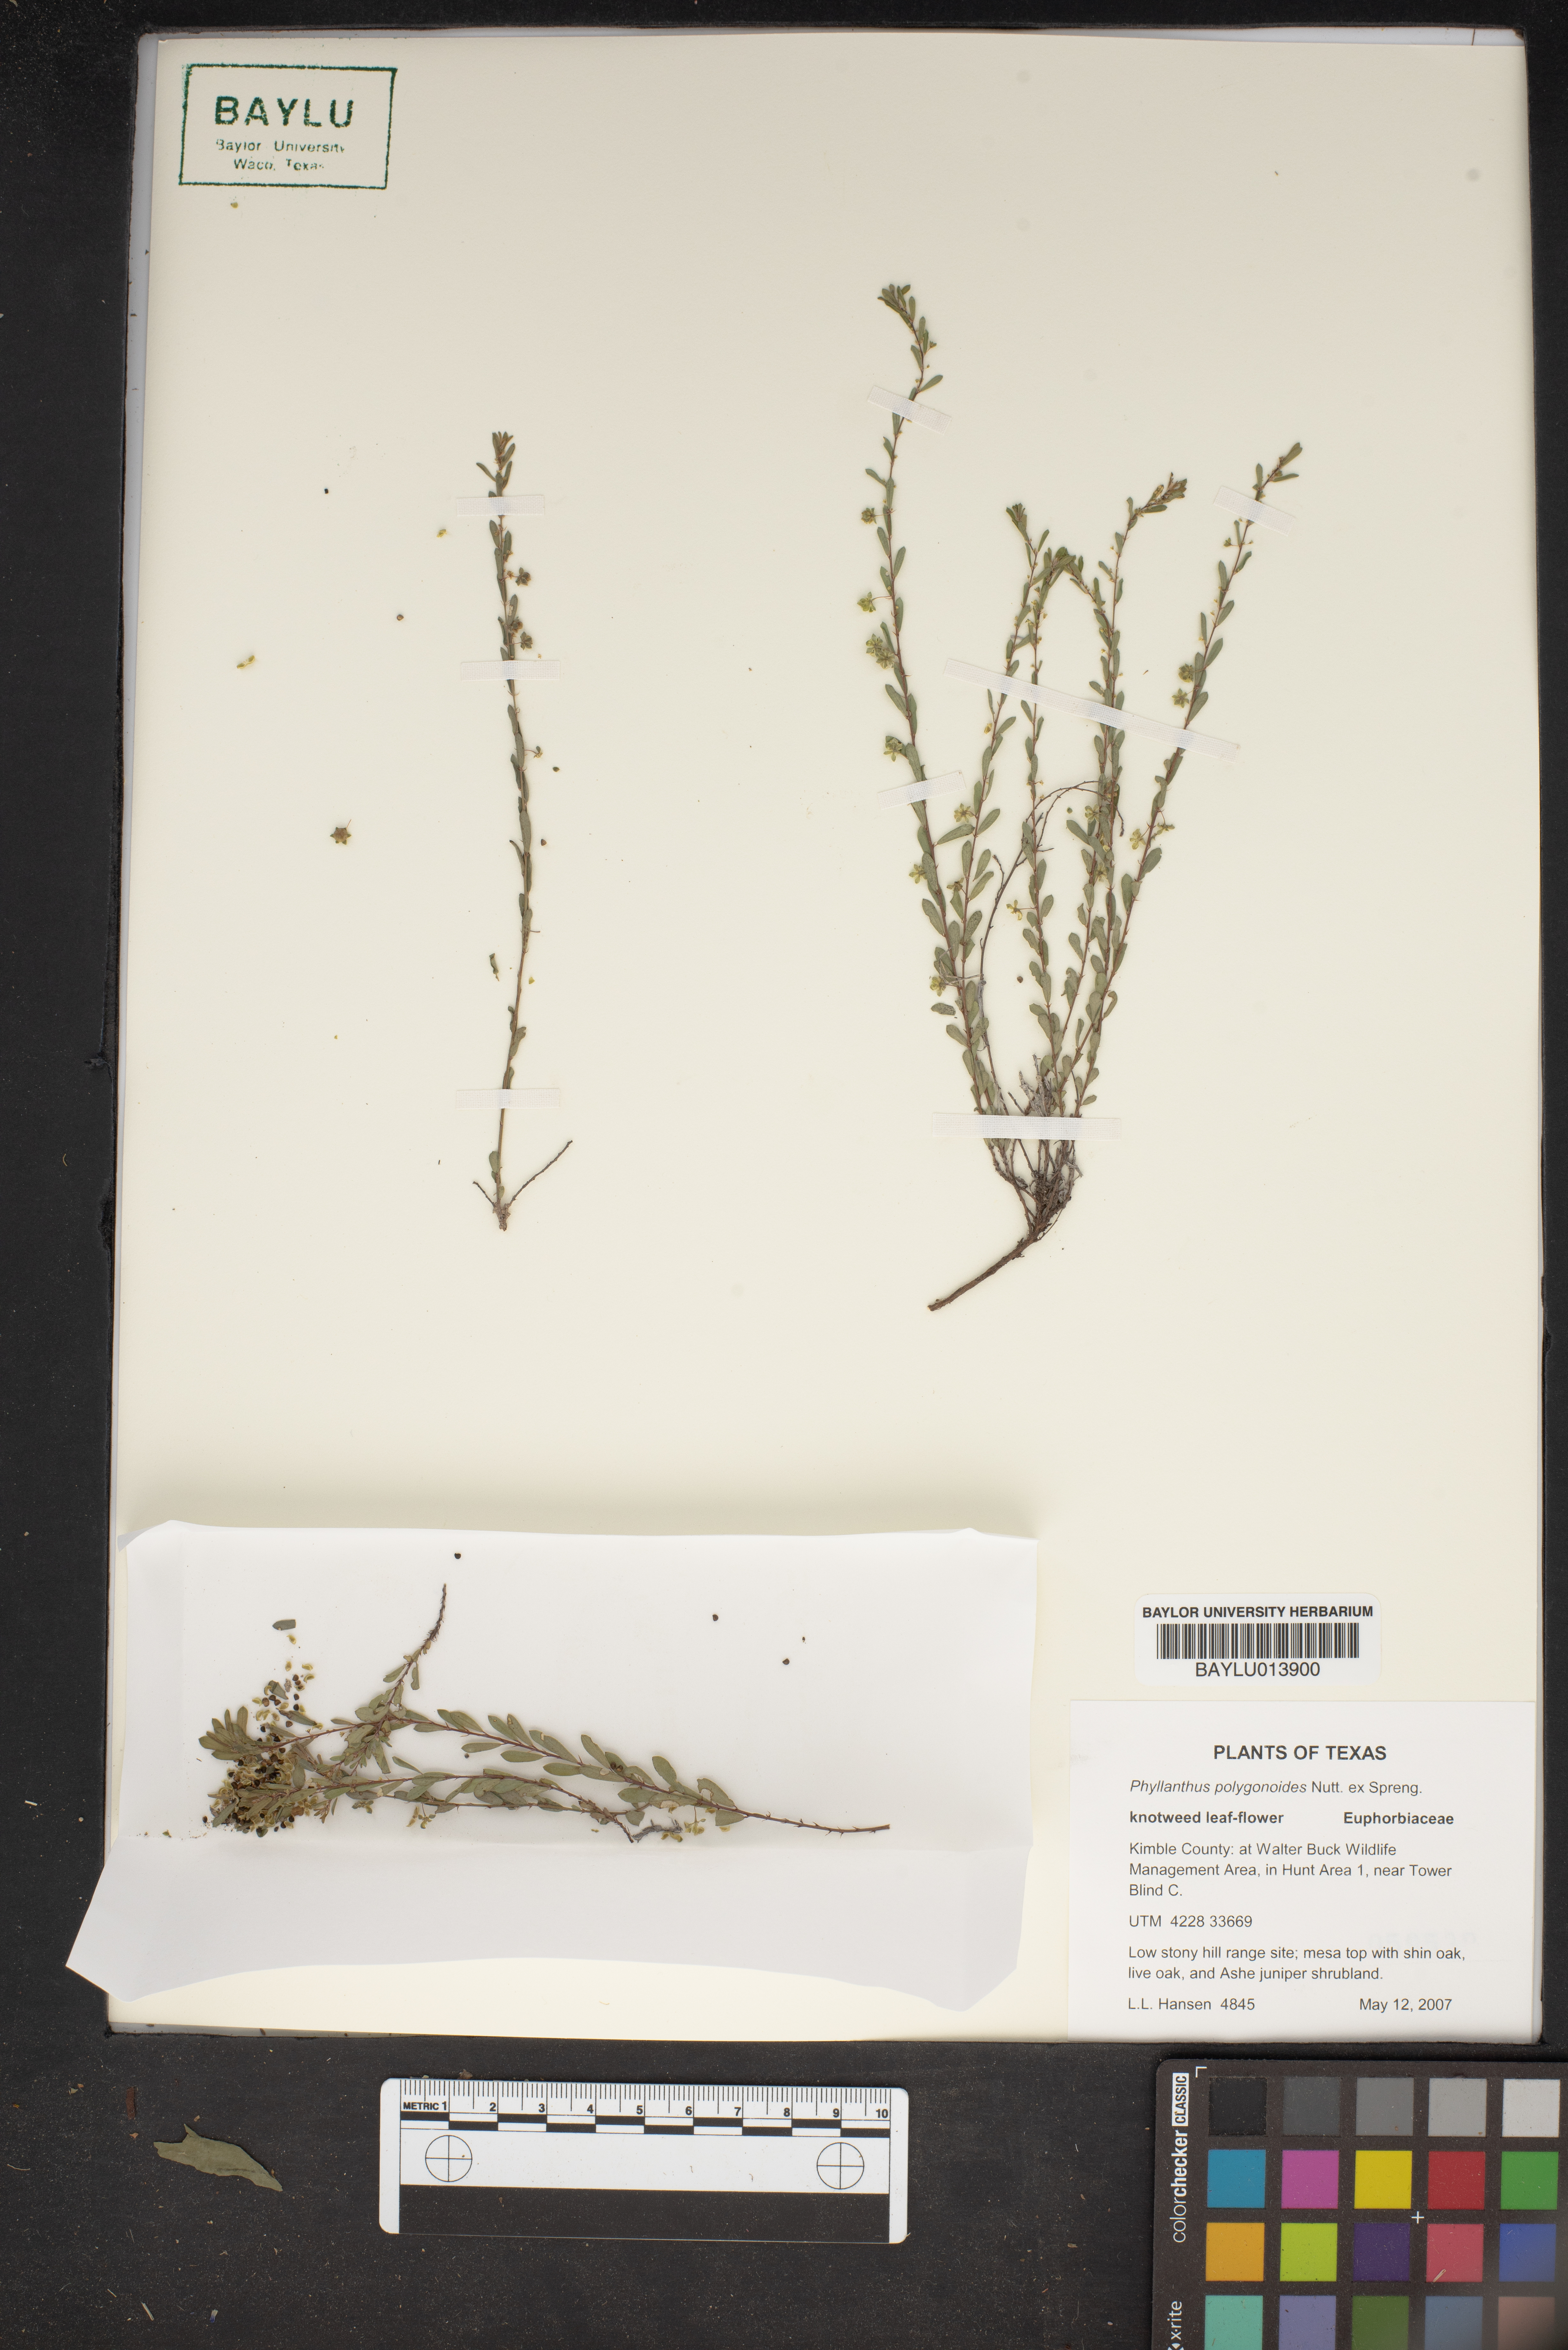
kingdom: Plantae
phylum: Tracheophyta
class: Magnoliopsida
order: Malpighiales
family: Phyllanthaceae
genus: Phyllanthus
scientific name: Phyllanthus polygonoides
